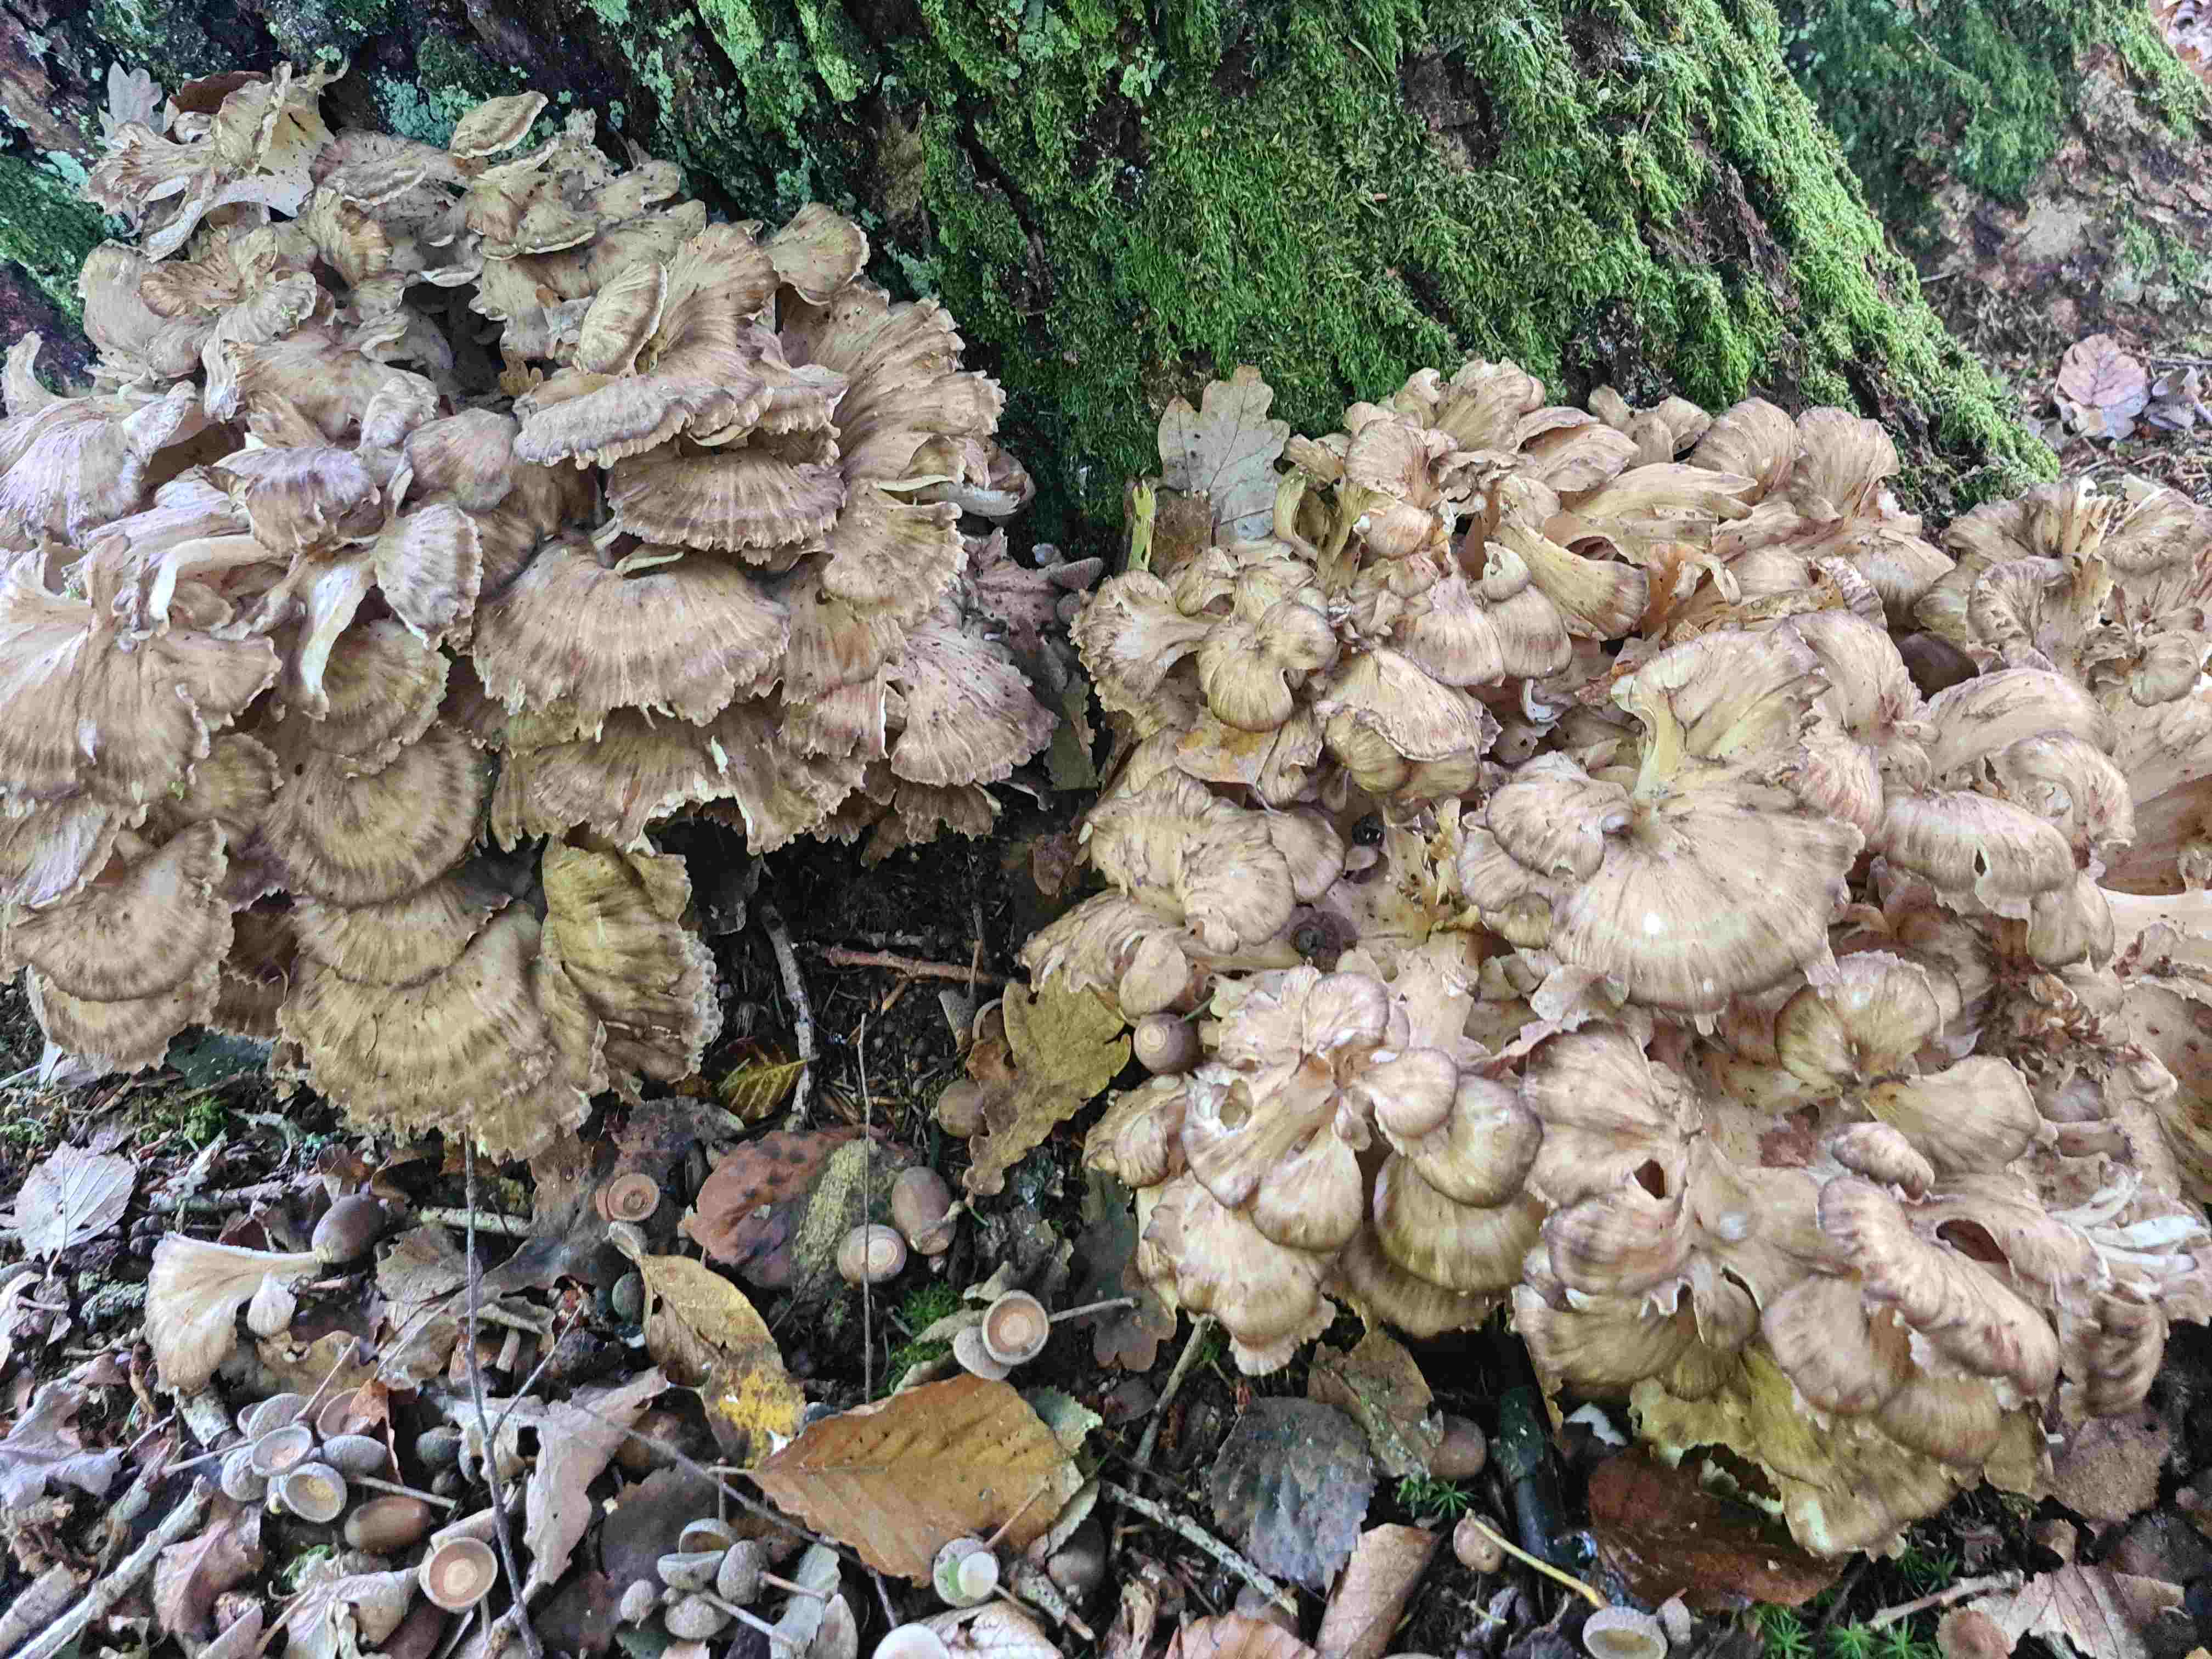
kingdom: Fungi
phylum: Basidiomycota
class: Agaricomycetes
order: Polyporales
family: Grifolaceae
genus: Grifola
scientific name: Grifola frondosa
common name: tueporesvamp
